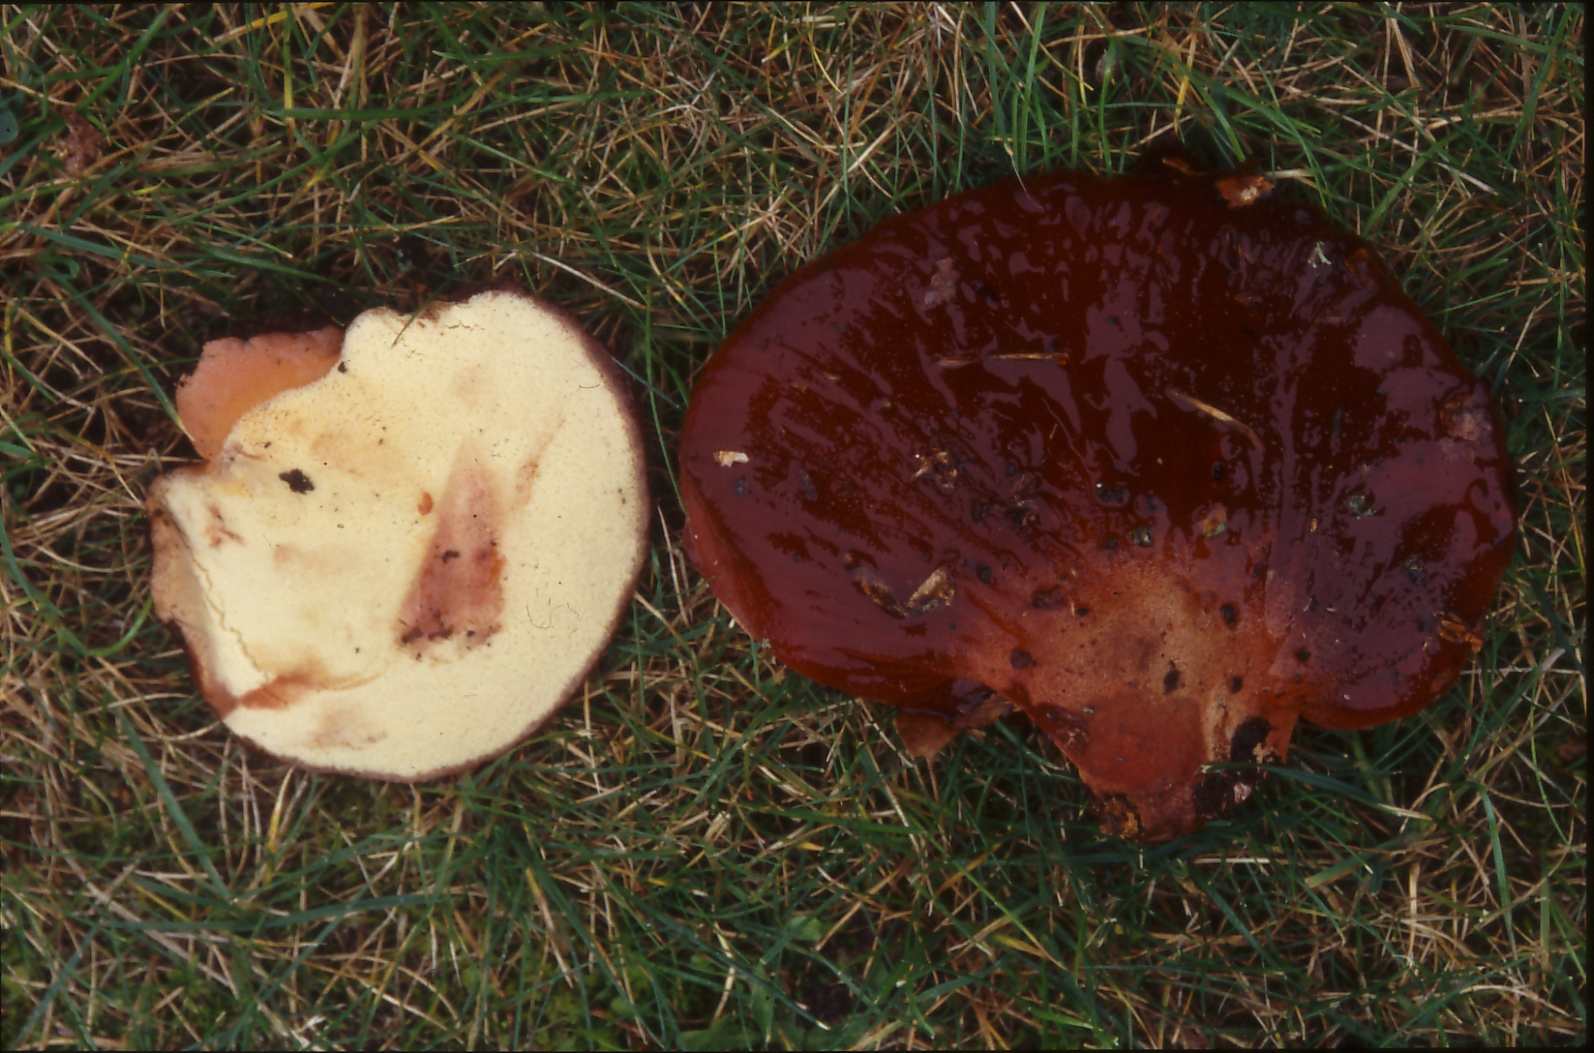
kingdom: Fungi
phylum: Basidiomycota
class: Agaricomycetes
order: Agaricales
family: Fistulinaceae
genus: Fistulina
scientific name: Fistulina hepatica
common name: oksetunge
